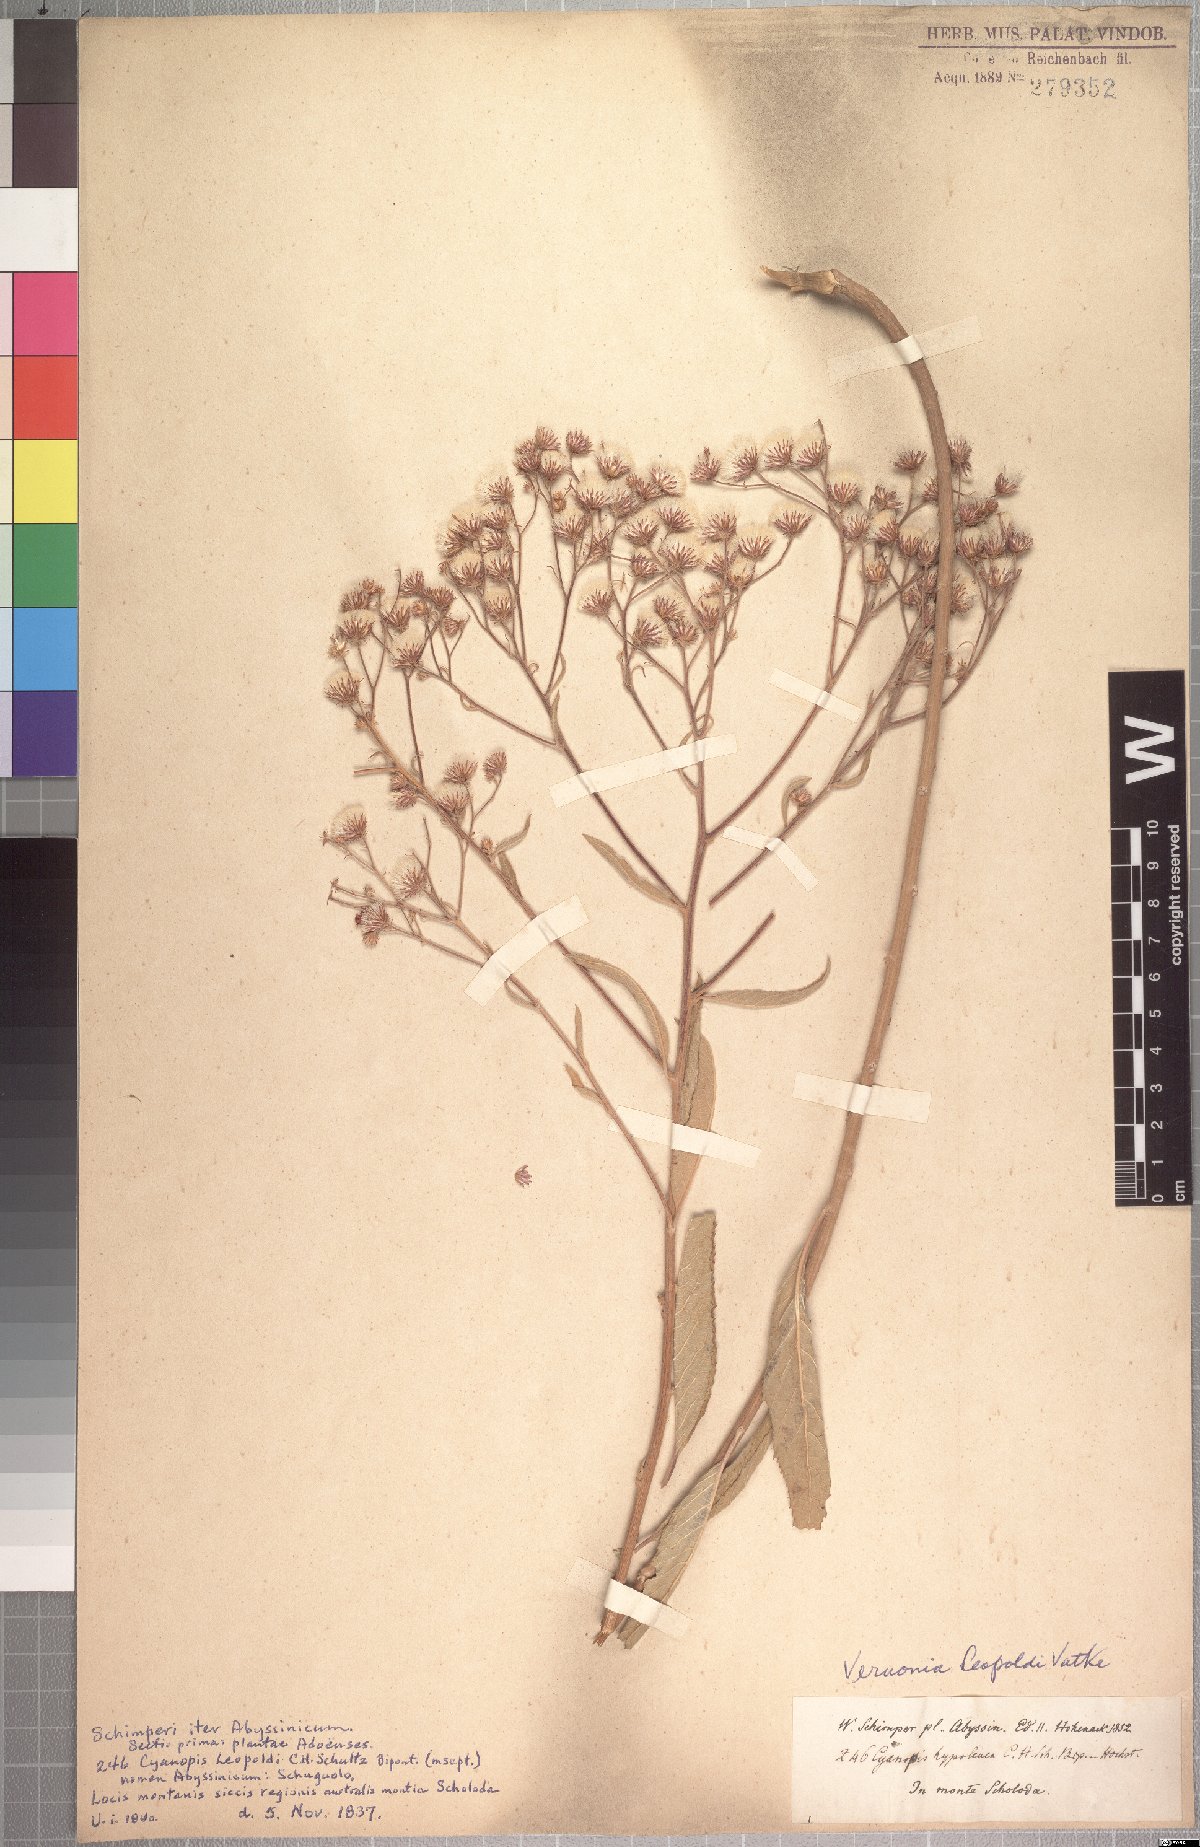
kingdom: Plantae
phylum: Tracheophyta
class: Magnoliopsida
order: Asterales
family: Asteraceae
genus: Vernonia
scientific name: Vernonia bipontini
